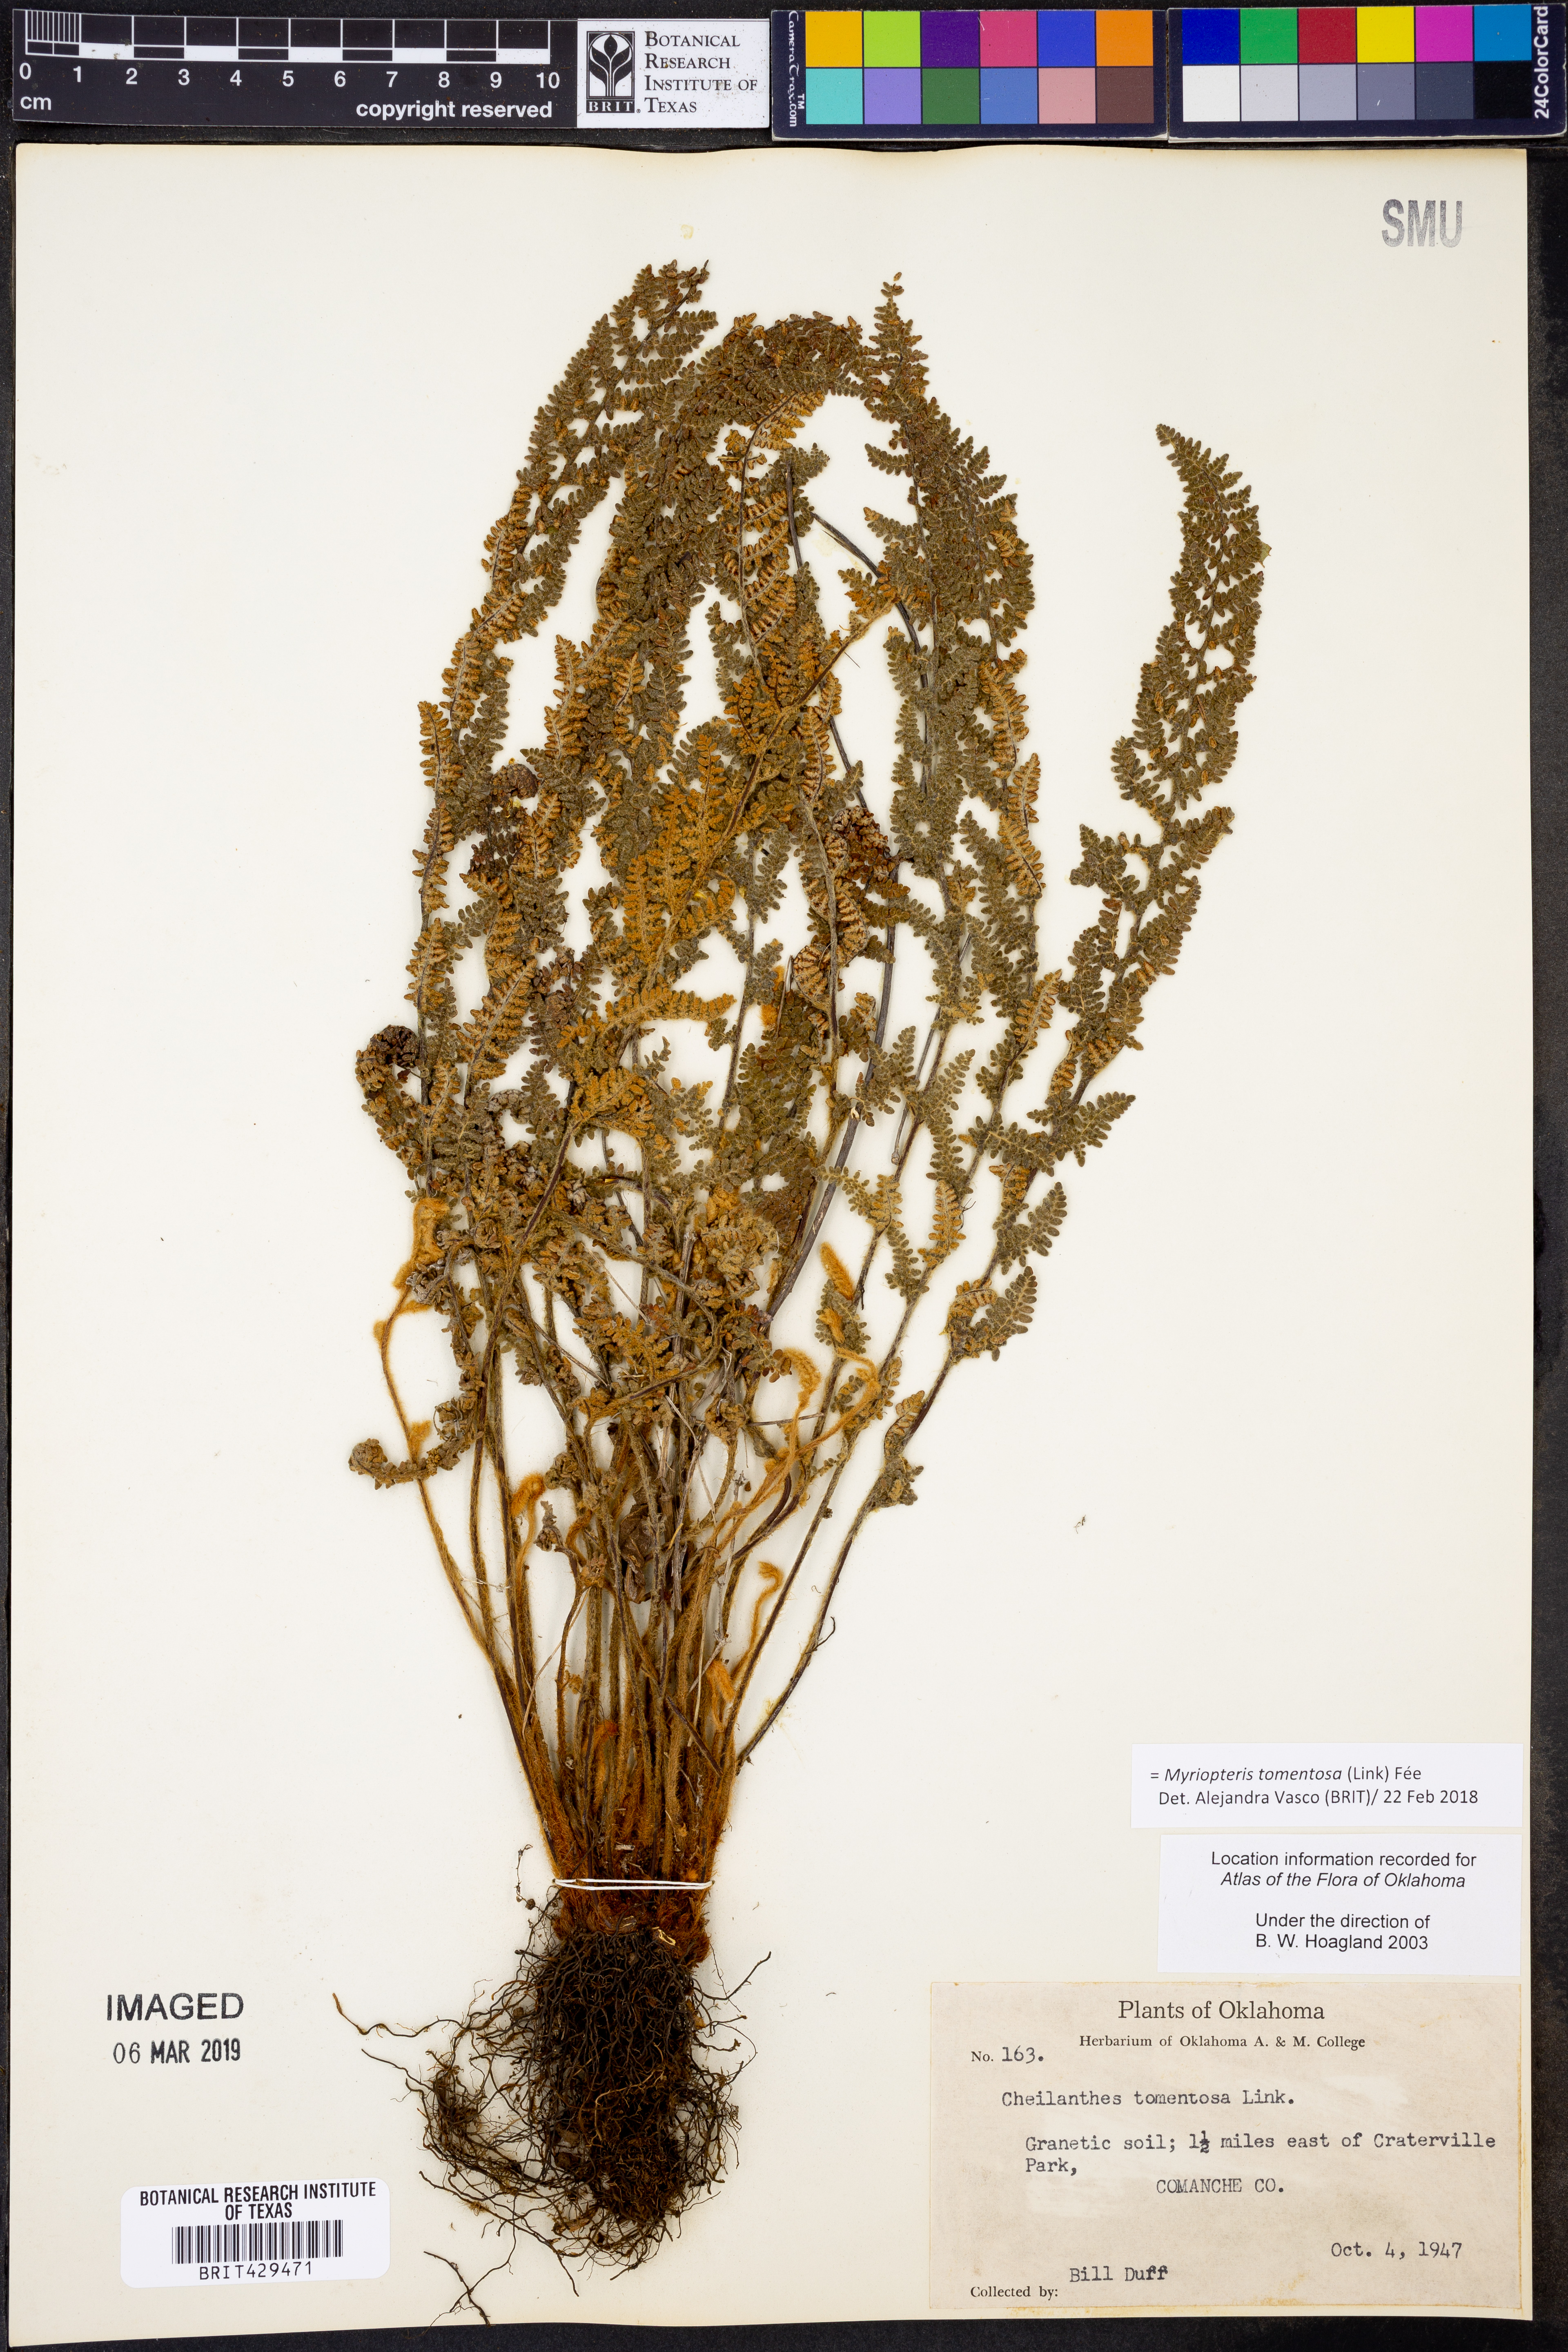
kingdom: Plantae
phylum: Tracheophyta
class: Polypodiopsida
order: Polypodiales
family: Pteridaceae
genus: Myriopteris
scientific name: Myriopteris tomentosa
